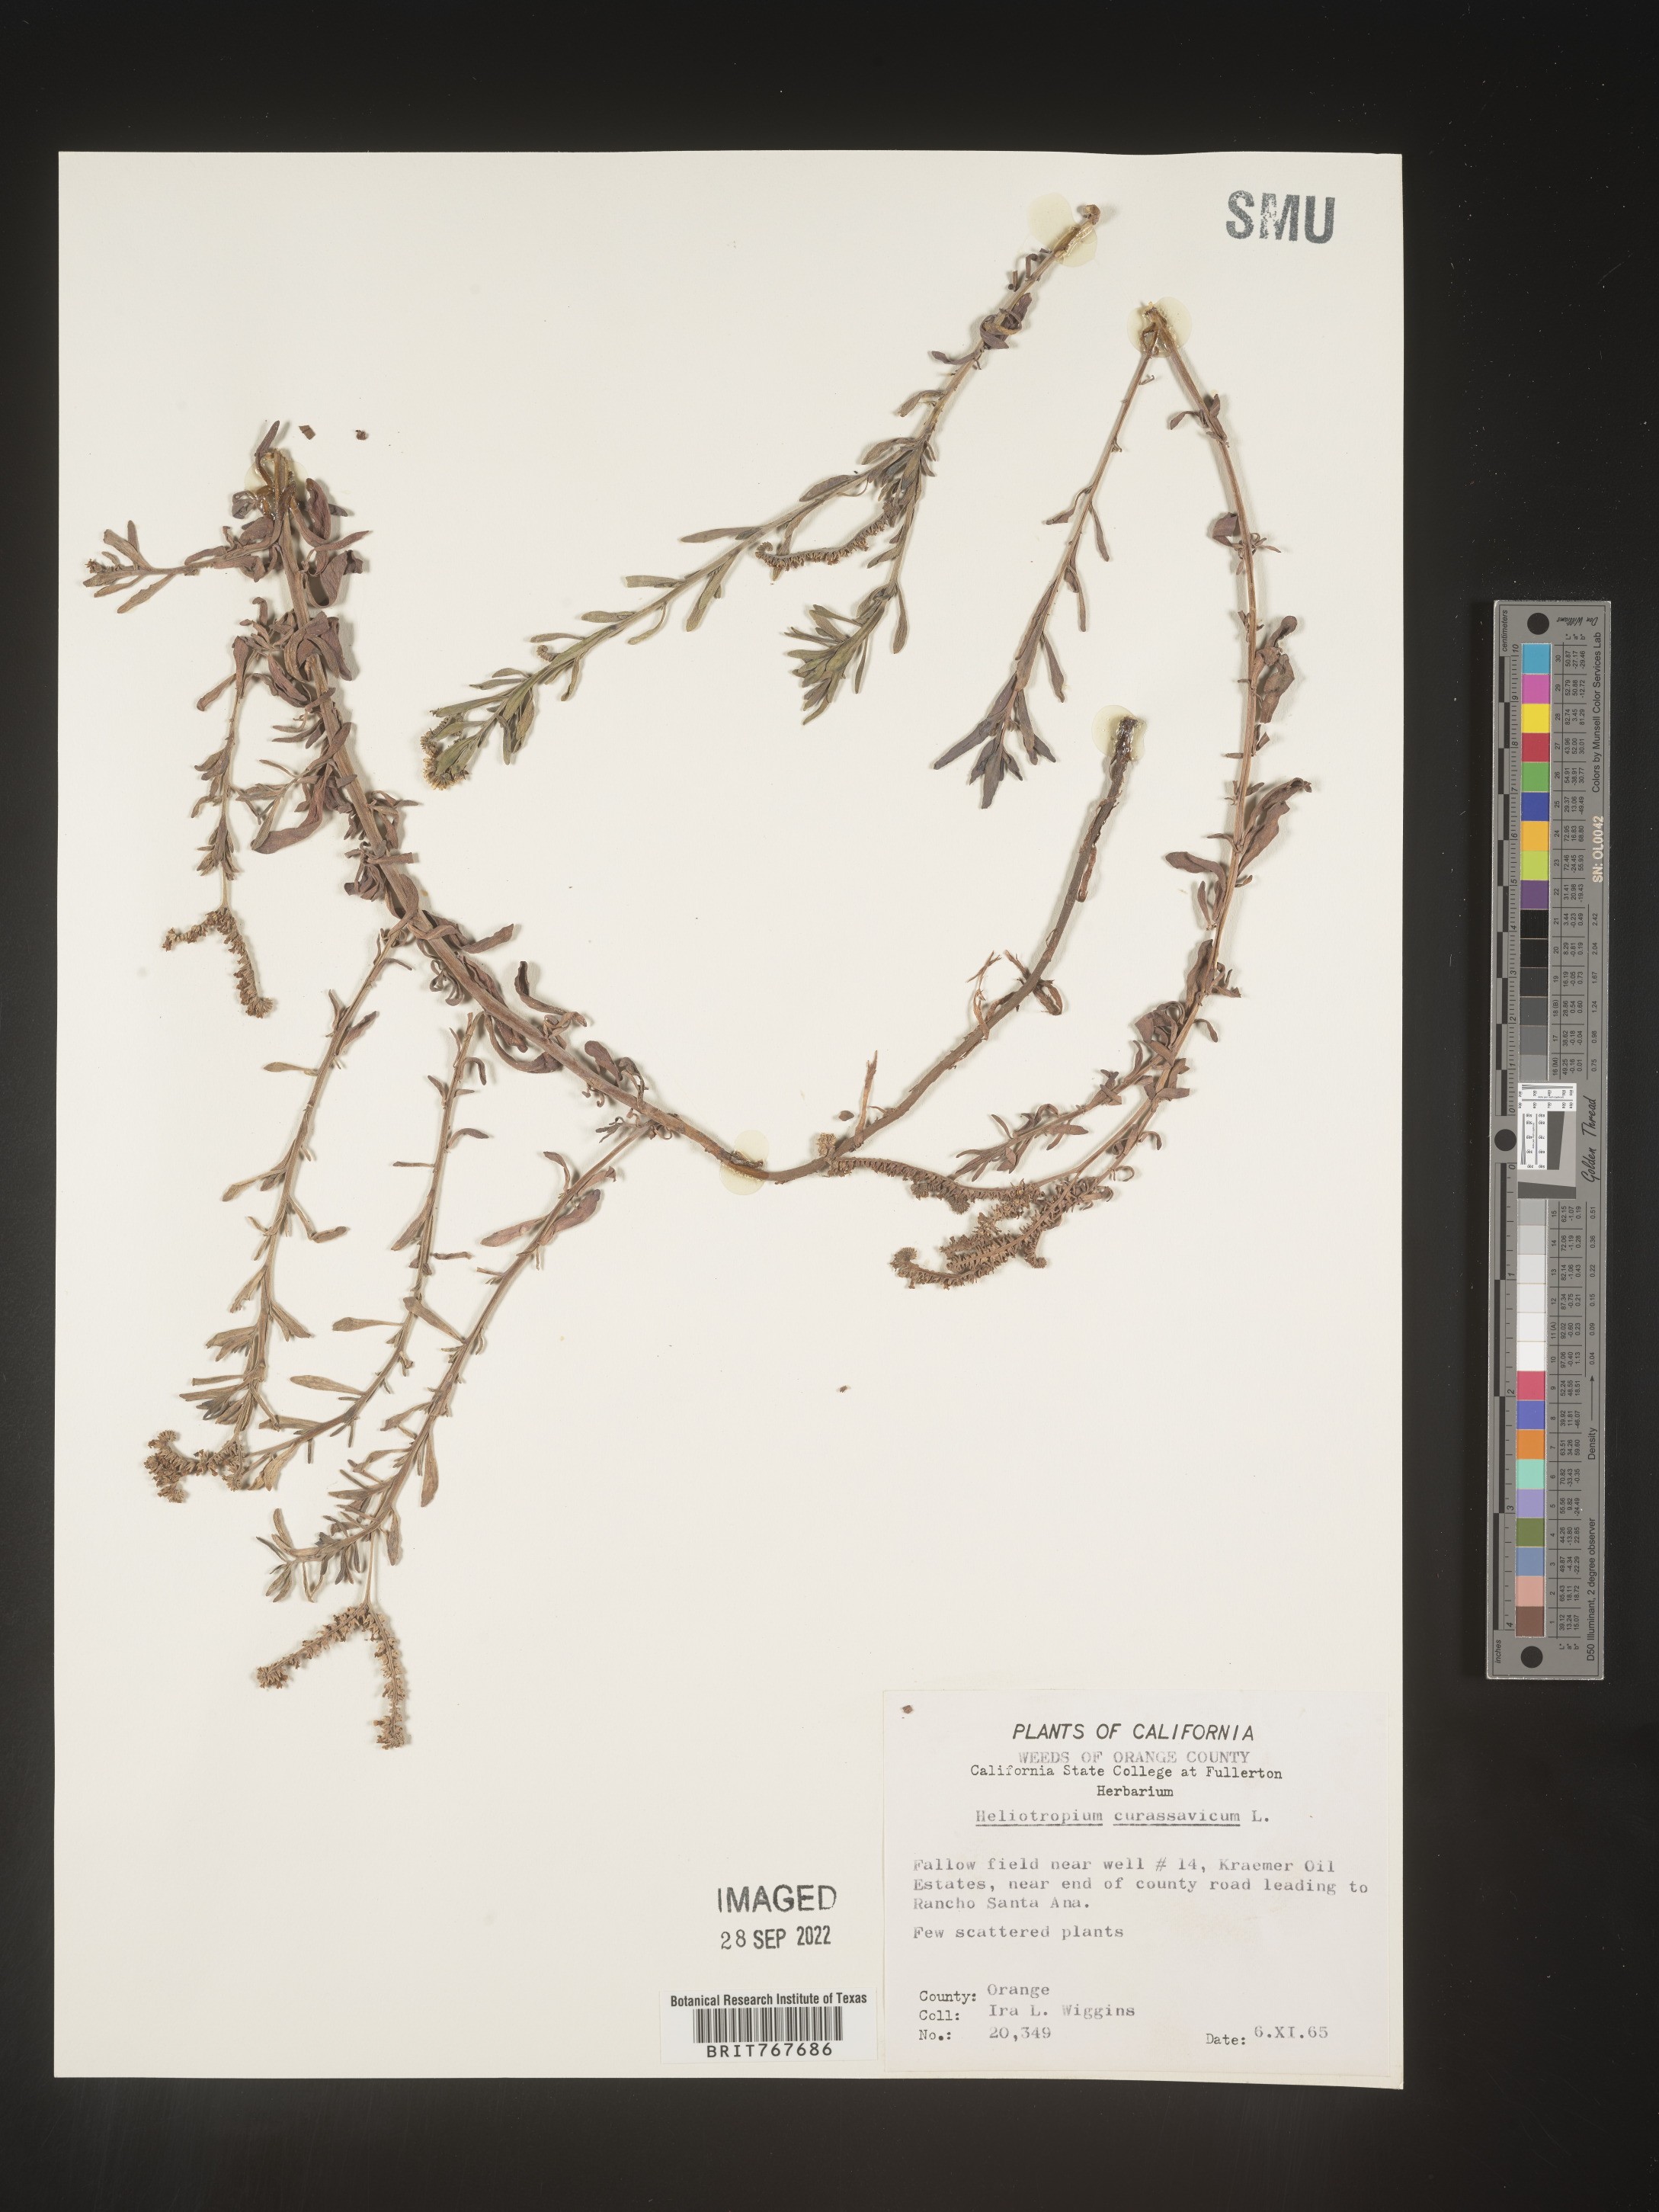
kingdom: Plantae
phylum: Tracheophyta
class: Magnoliopsida
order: Boraginales
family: Heliotropiaceae
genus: Heliotropium
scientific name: Heliotropium curassavicum
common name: Seaside heliotrope
